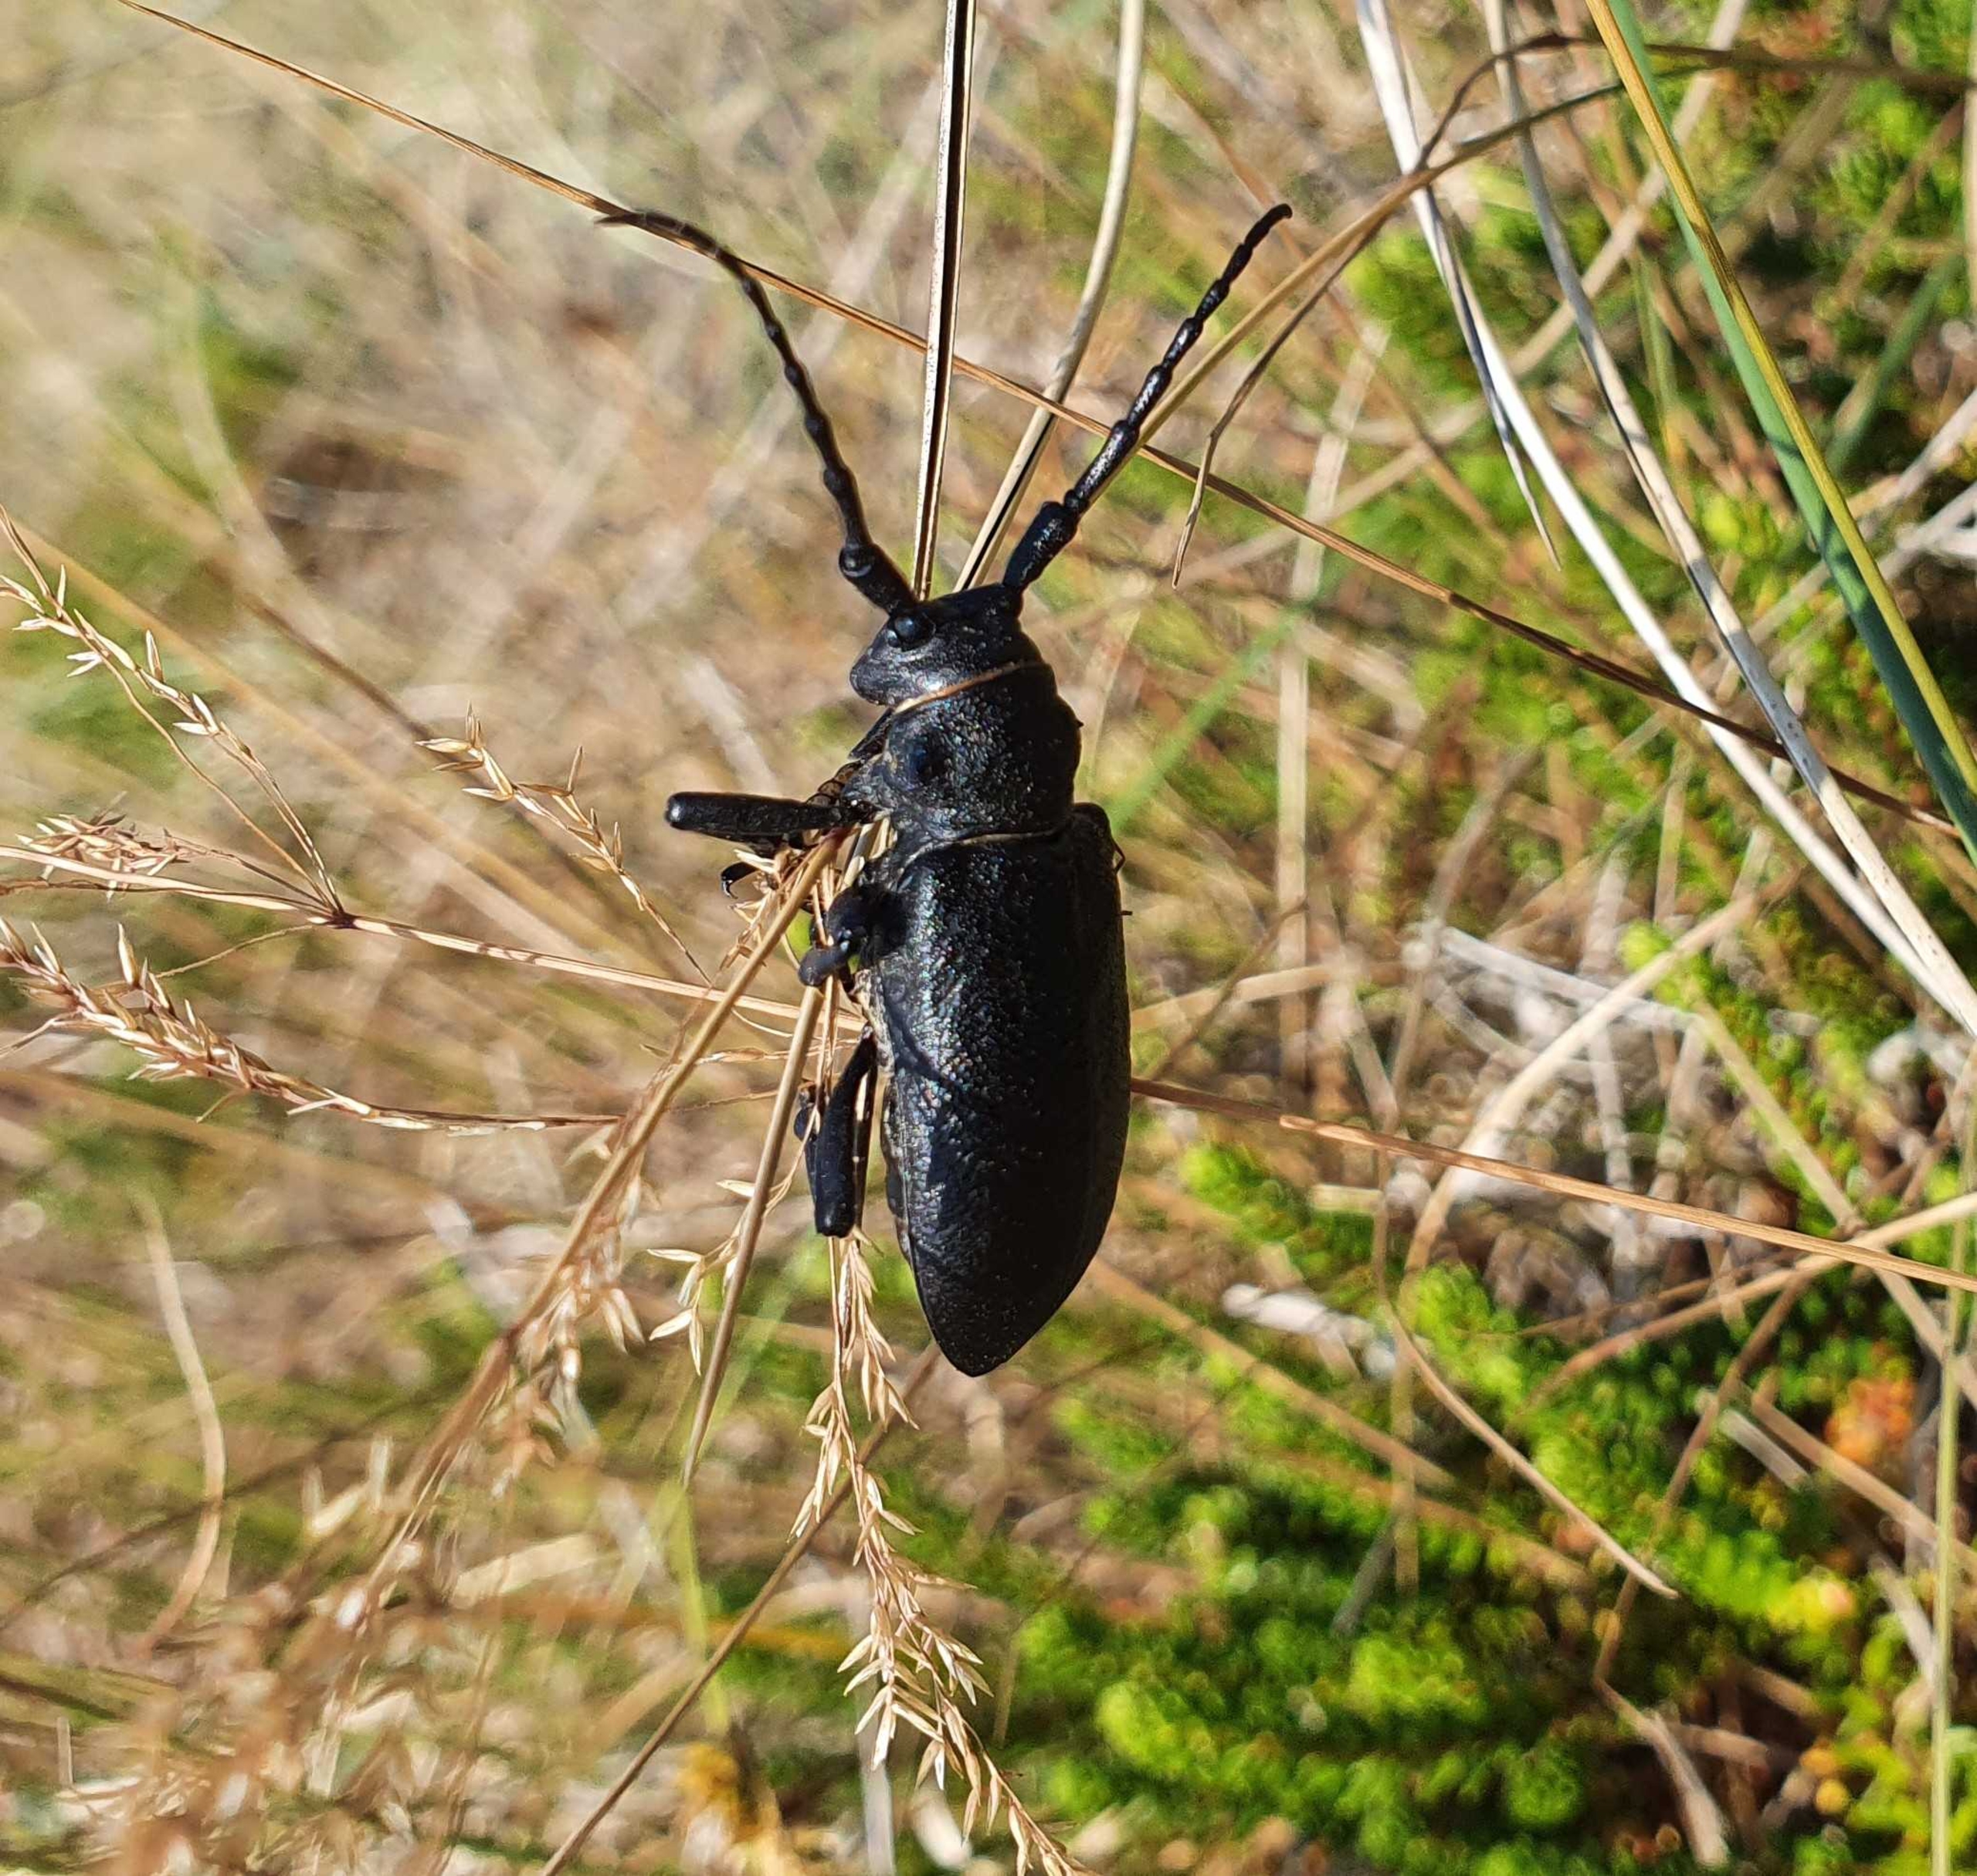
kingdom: Animalia
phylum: Arthropoda
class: Insecta
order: Coleoptera
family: Cerambycidae
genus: Lamia
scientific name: Lamia textor
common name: Væver
